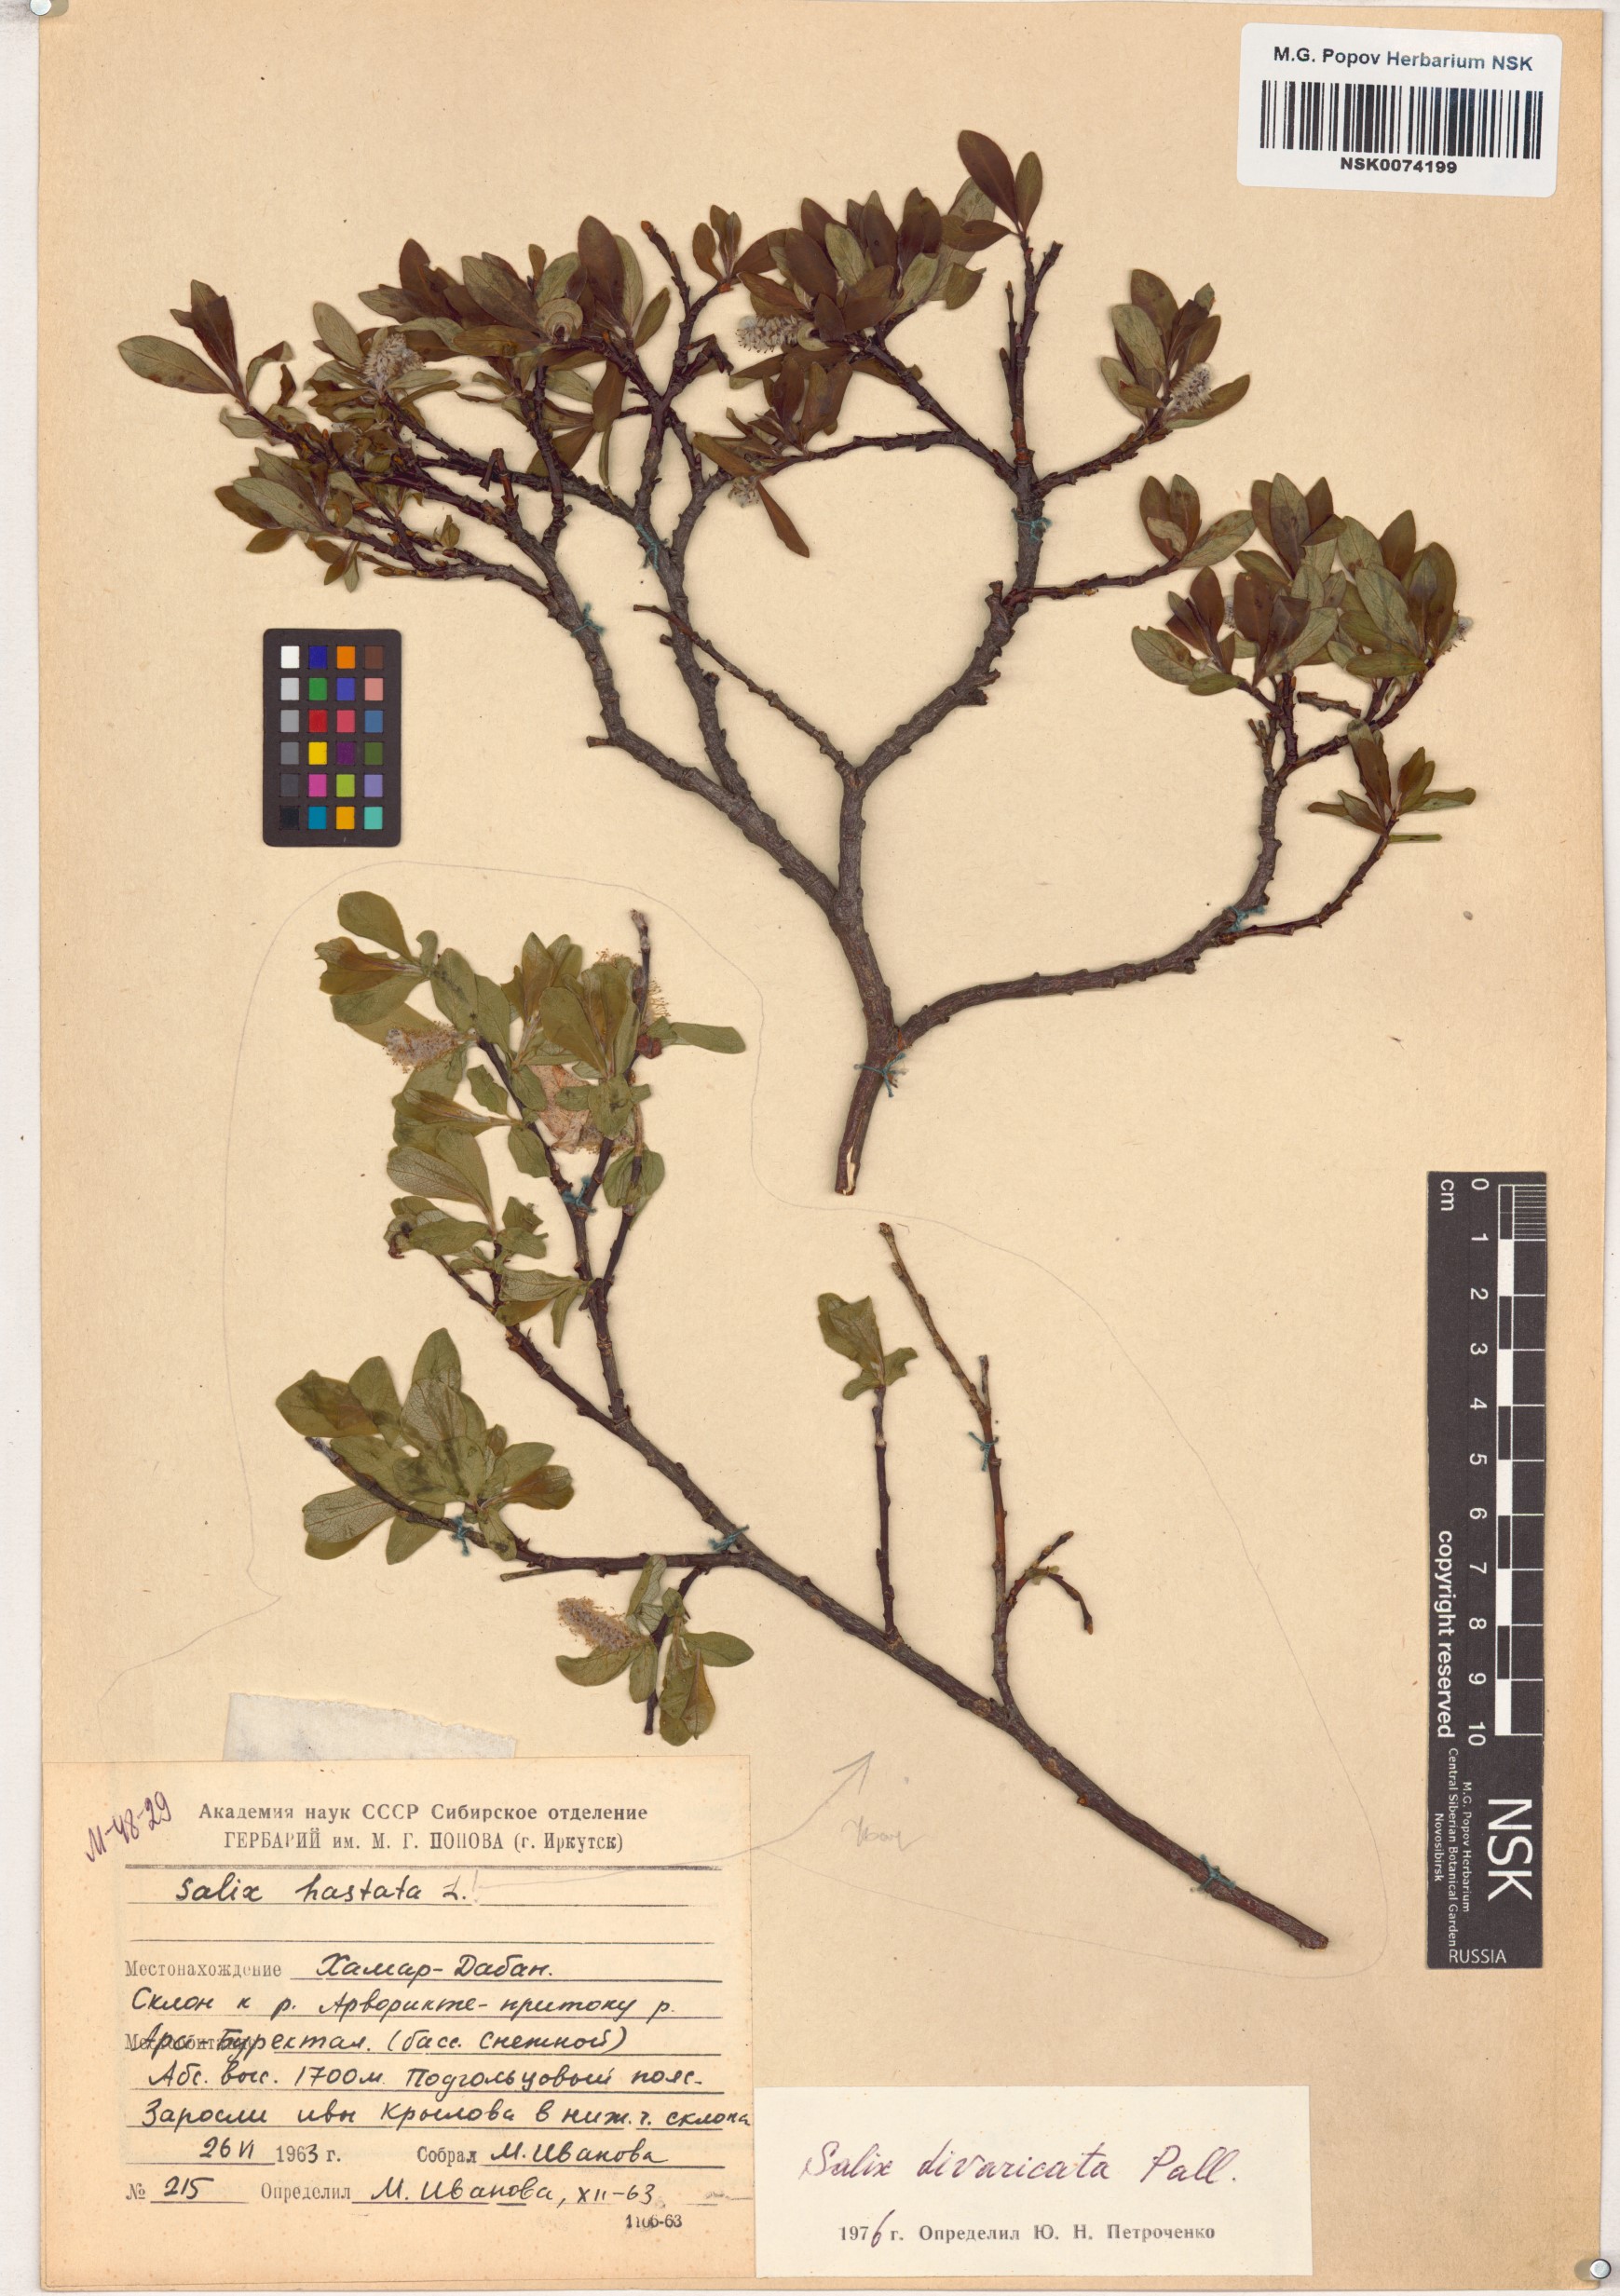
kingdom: Plantae
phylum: Tracheophyta
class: Magnoliopsida
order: Malpighiales
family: Salicaceae
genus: Salix
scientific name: Salix divaricata
